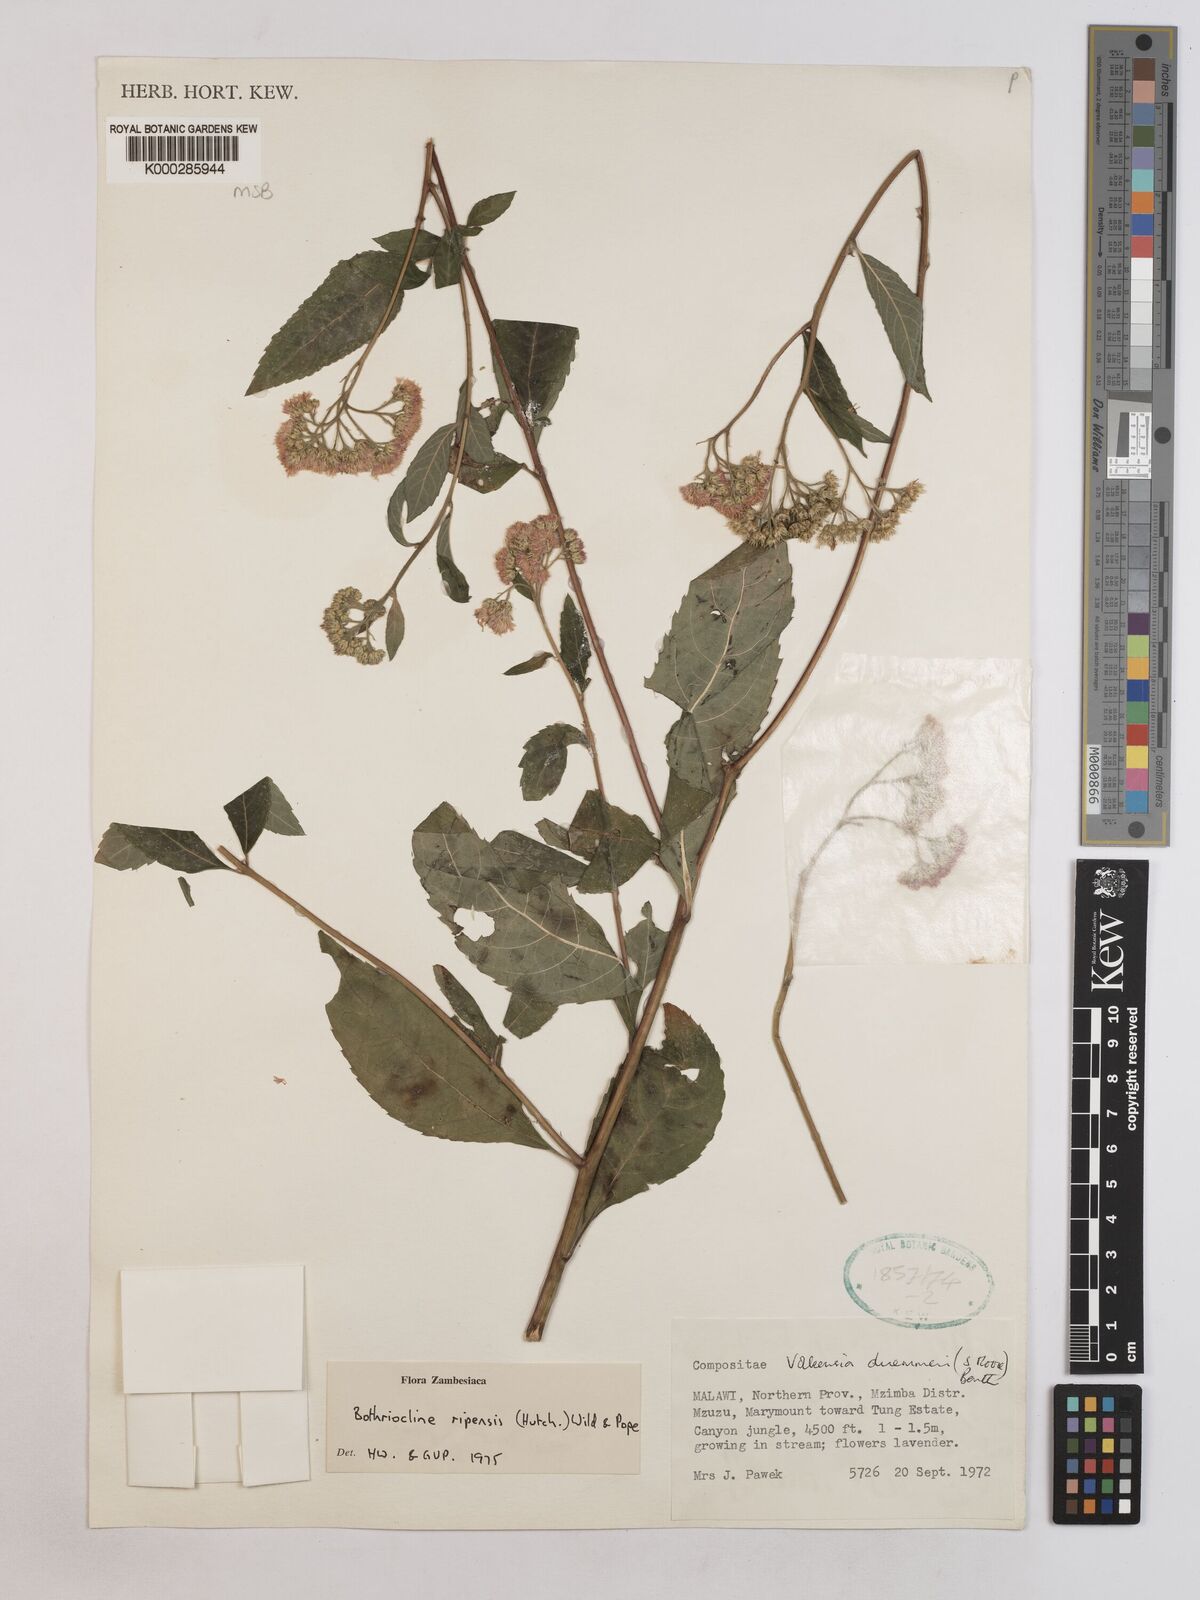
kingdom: Plantae
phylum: Tracheophyta
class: Magnoliopsida
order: Asterales
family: Asteraceae
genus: Bothriocline
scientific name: Bothriocline ripensis
